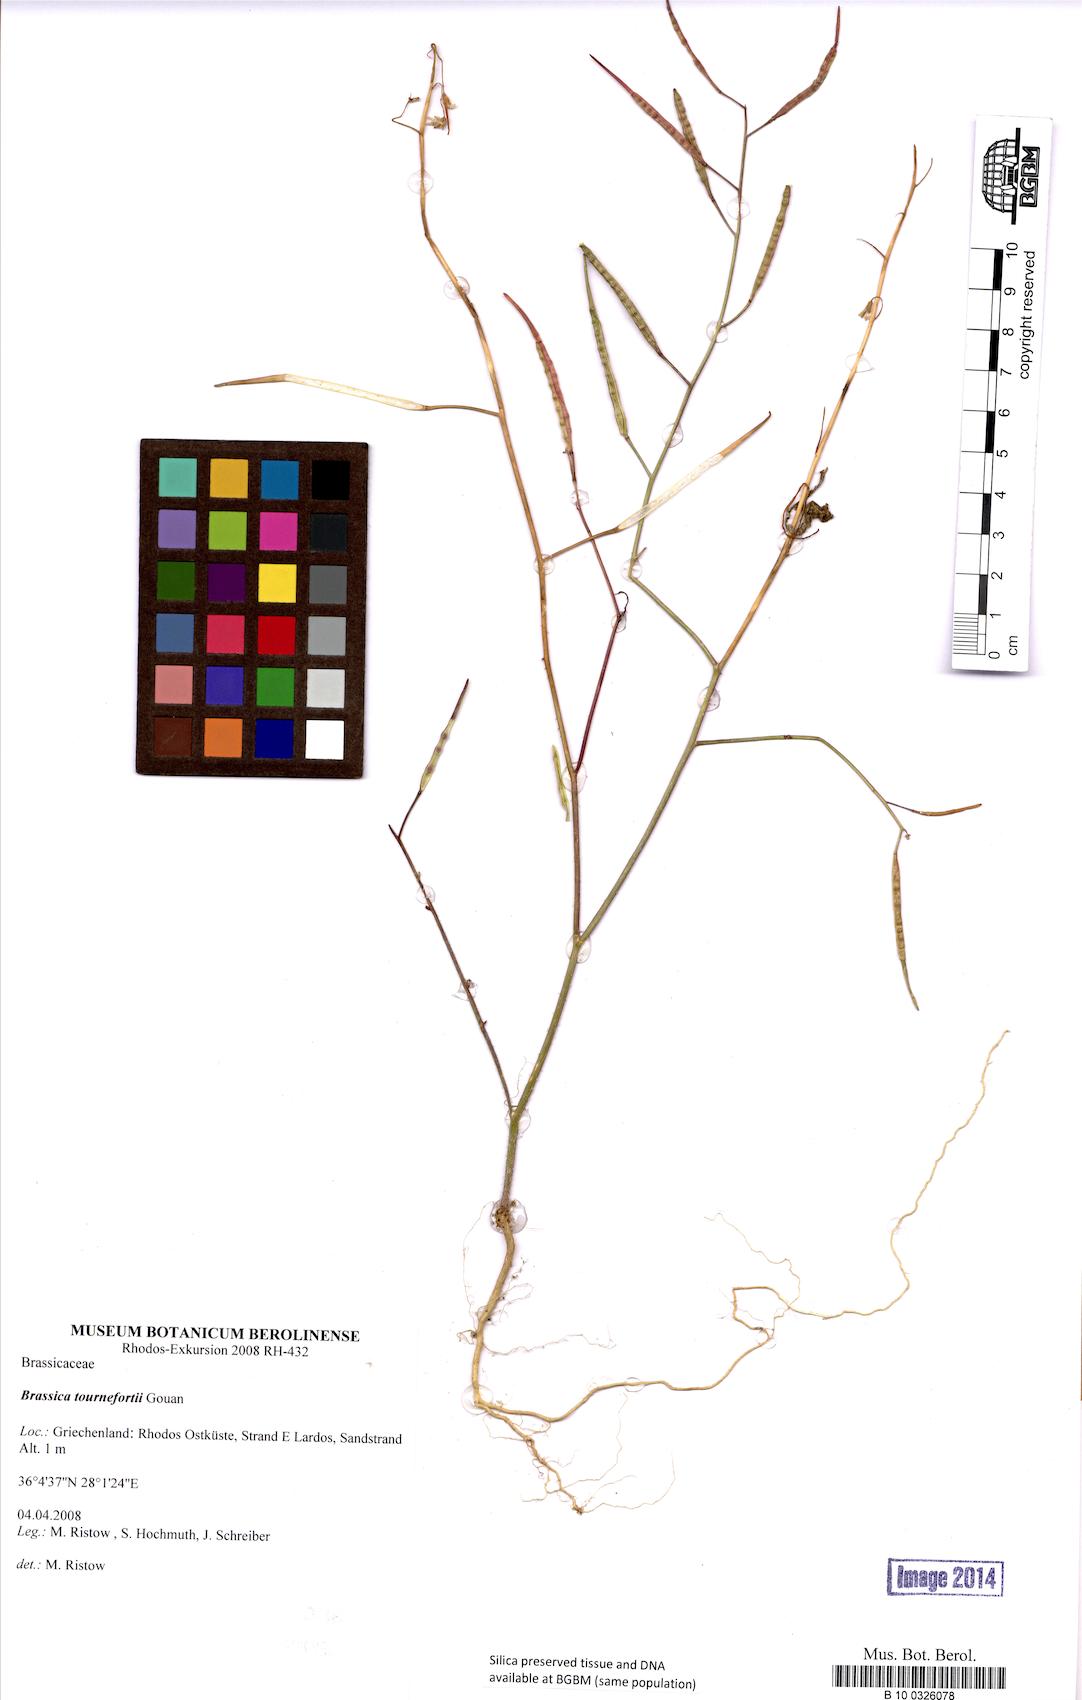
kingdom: Plantae
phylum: Tracheophyta
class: Magnoliopsida
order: Brassicales
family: Brassicaceae
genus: Brassica
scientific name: Brassica tournefortii
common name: Pale cabbage
